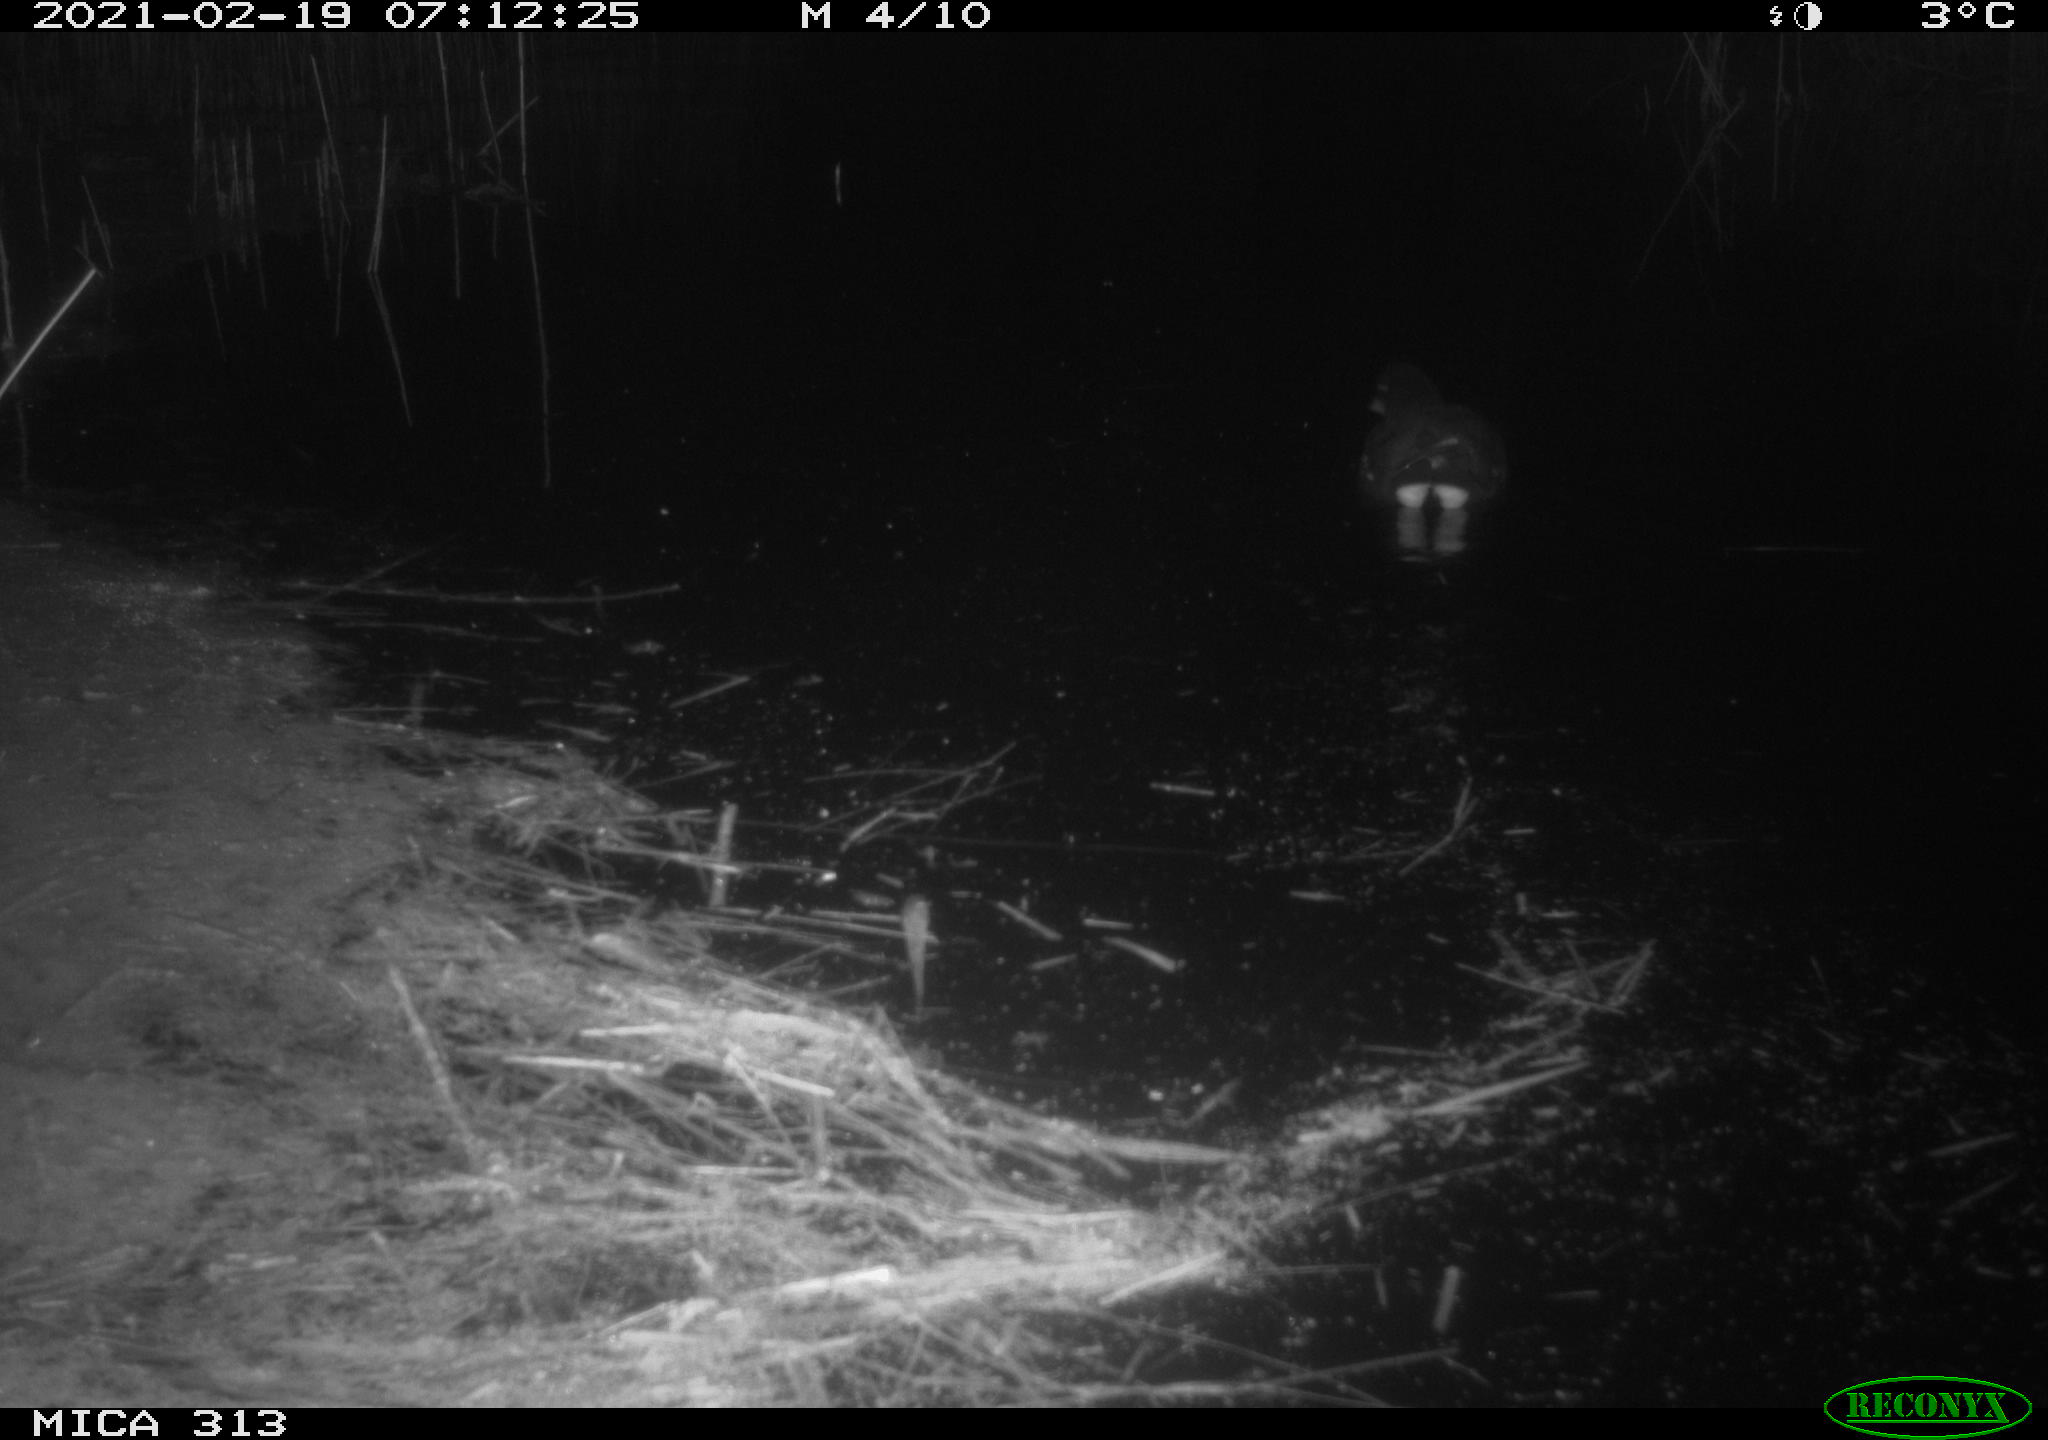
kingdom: Animalia
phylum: Chordata
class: Aves
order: Gruiformes
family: Rallidae
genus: Gallinula
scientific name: Gallinula chloropus
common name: Common moorhen
